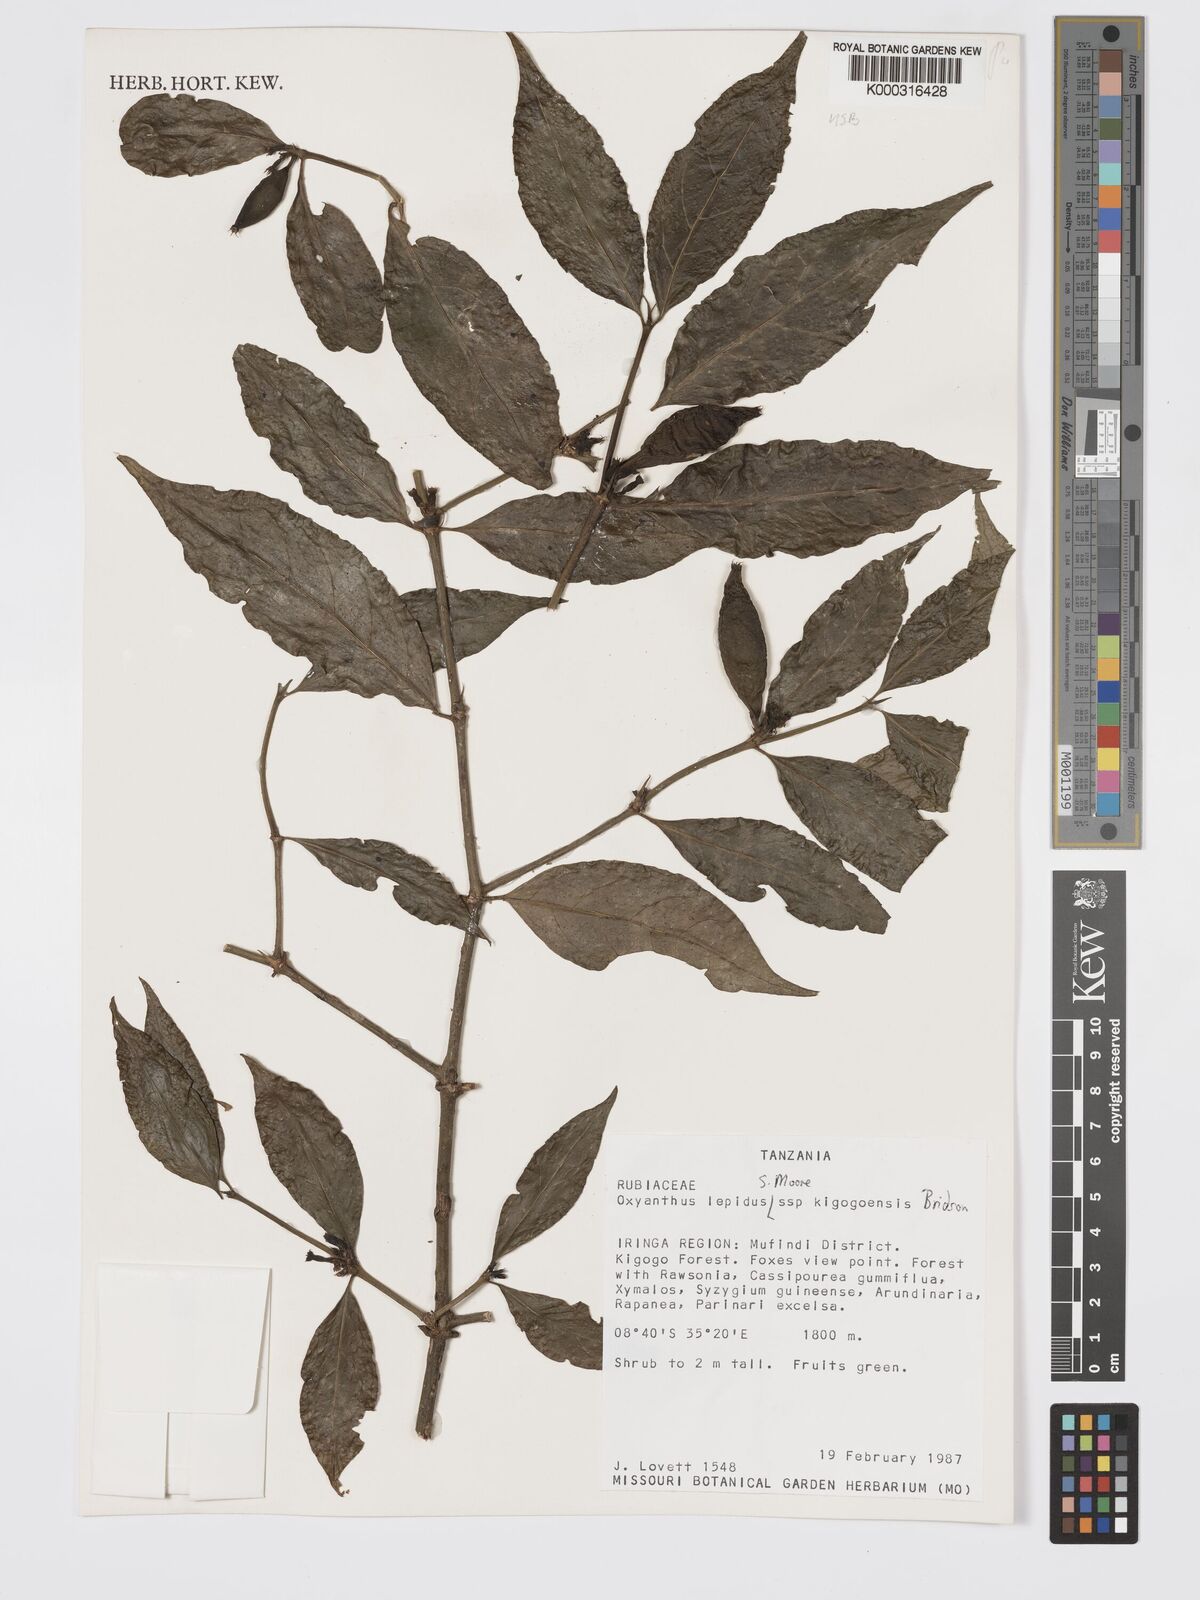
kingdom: Plantae
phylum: Tracheophyta
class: Magnoliopsida
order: Gentianales
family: Rubiaceae
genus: Oxyanthus
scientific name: Oxyanthus lepidus
